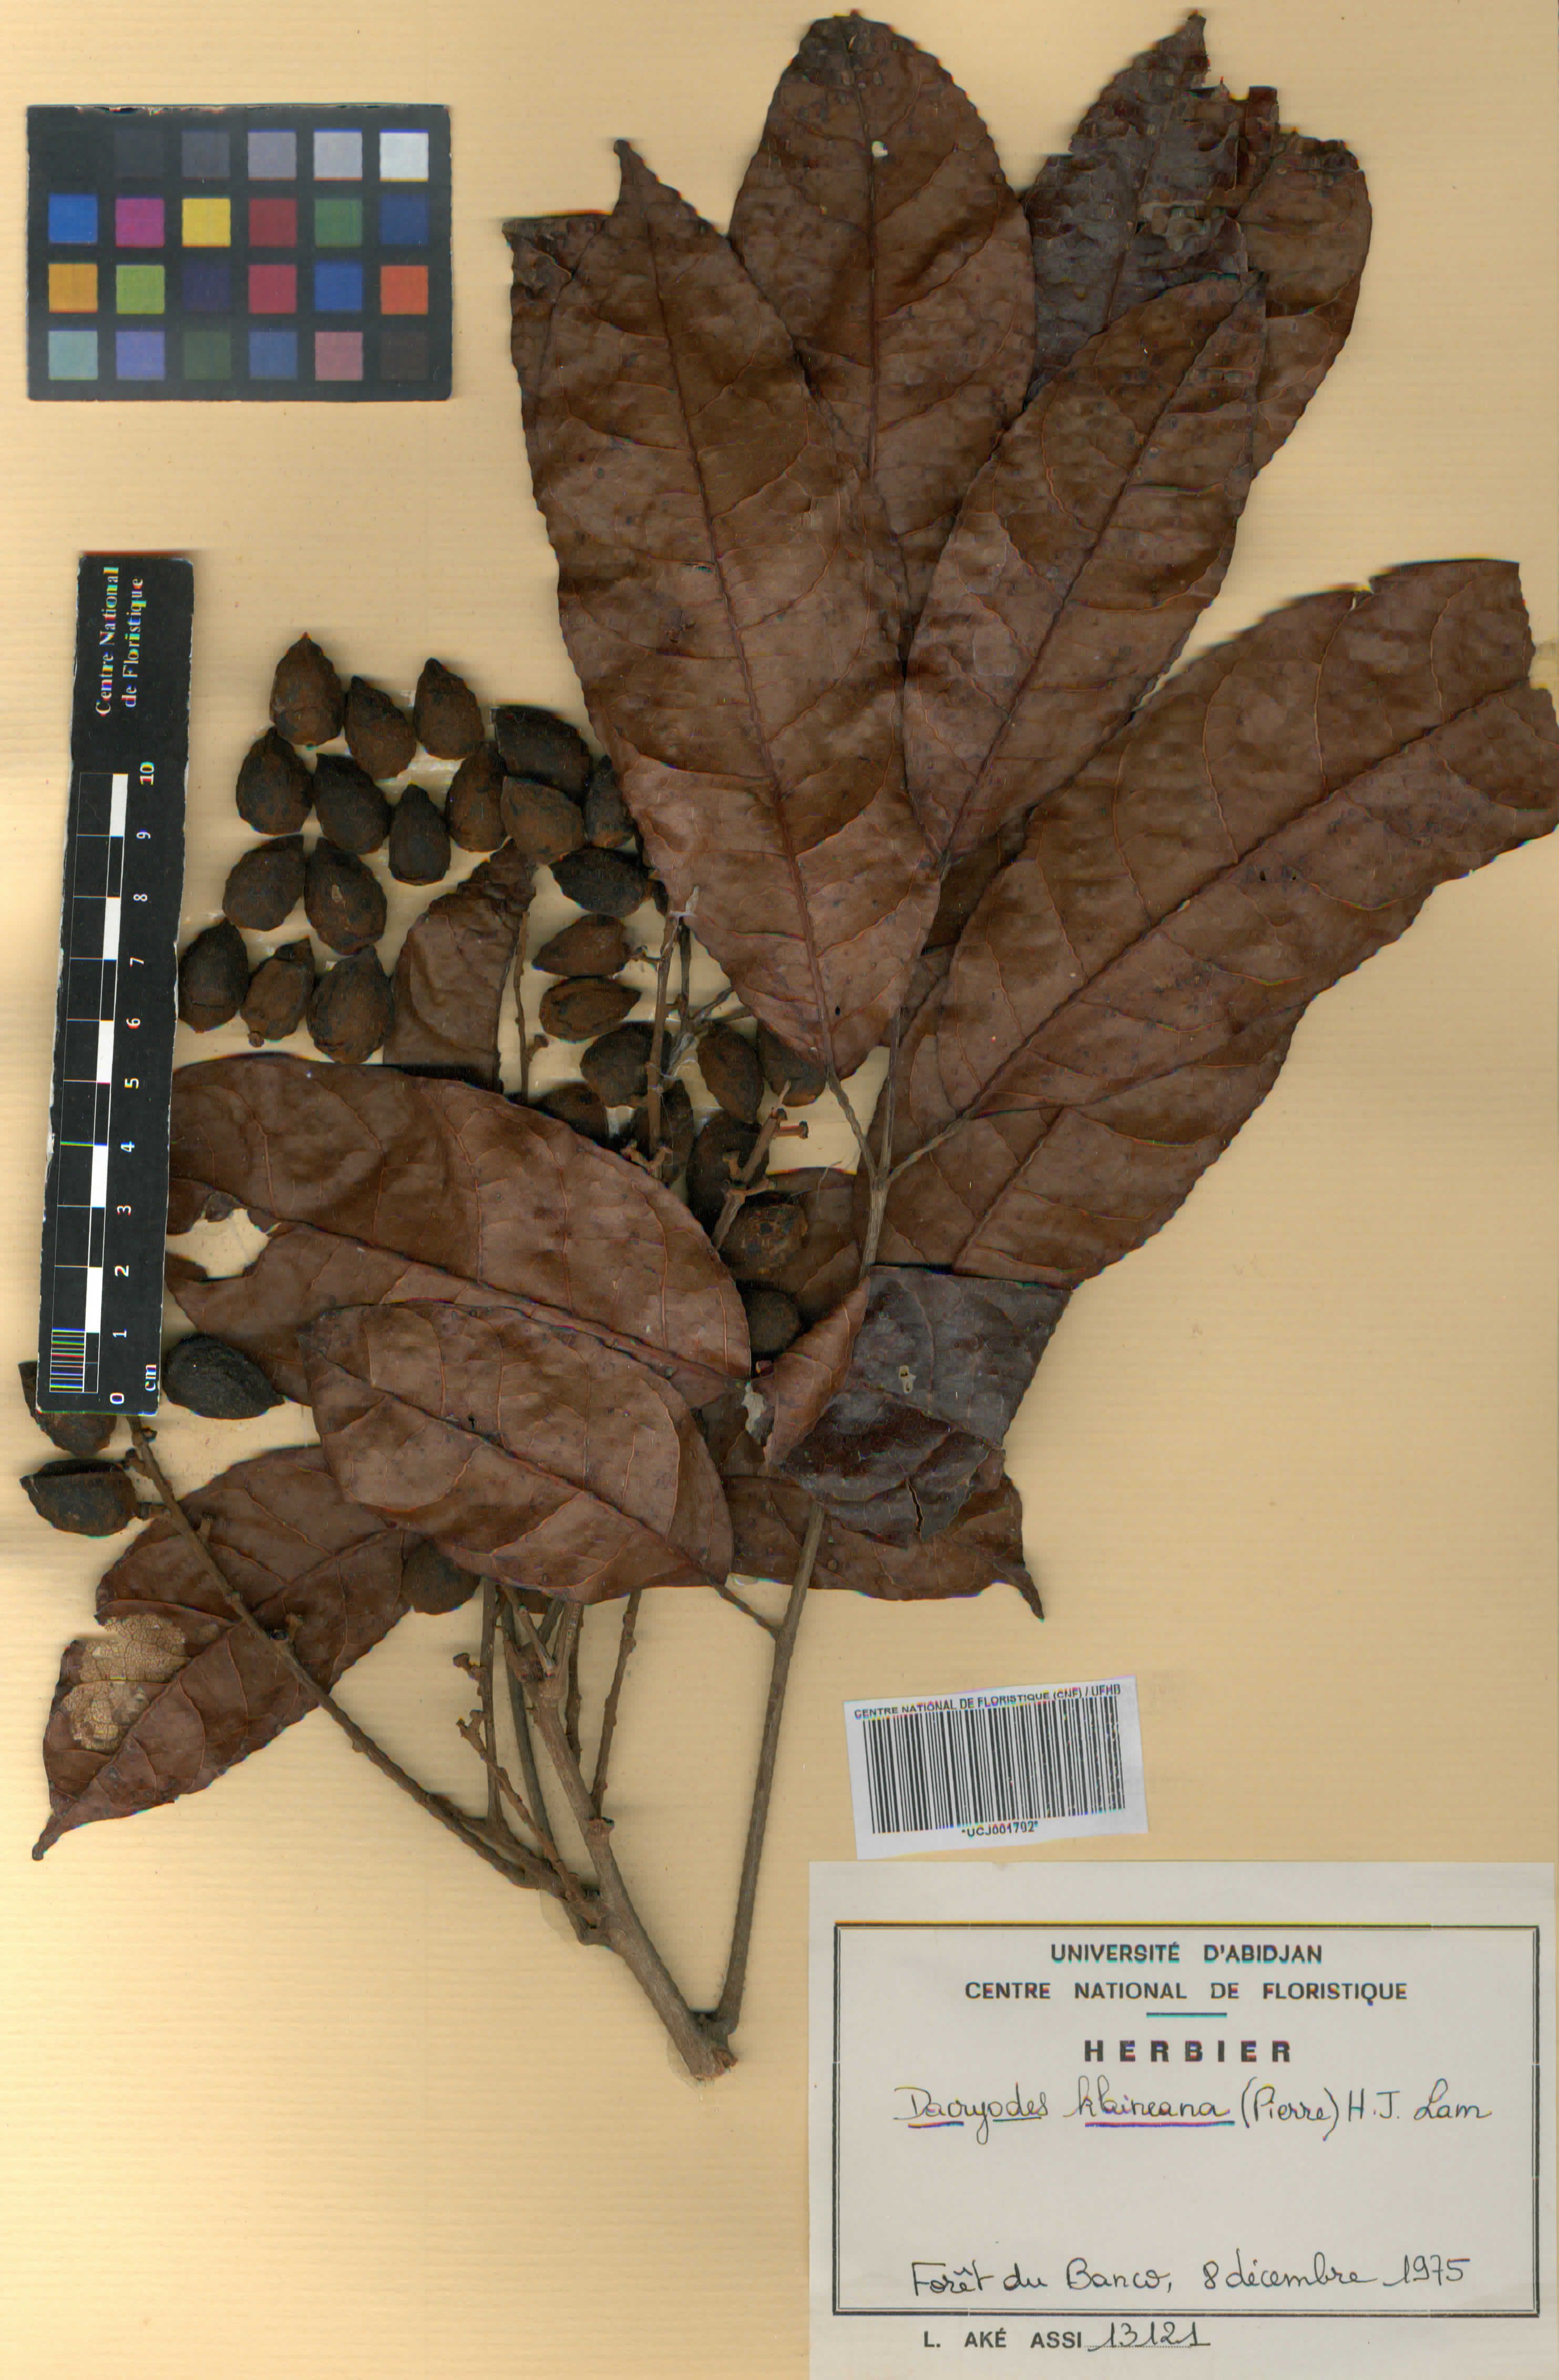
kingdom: Plantae
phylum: Tracheophyta
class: Magnoliopsida
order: Sapindales
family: Burseraceae
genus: Pachylobus
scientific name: Pachylobus klaineana
